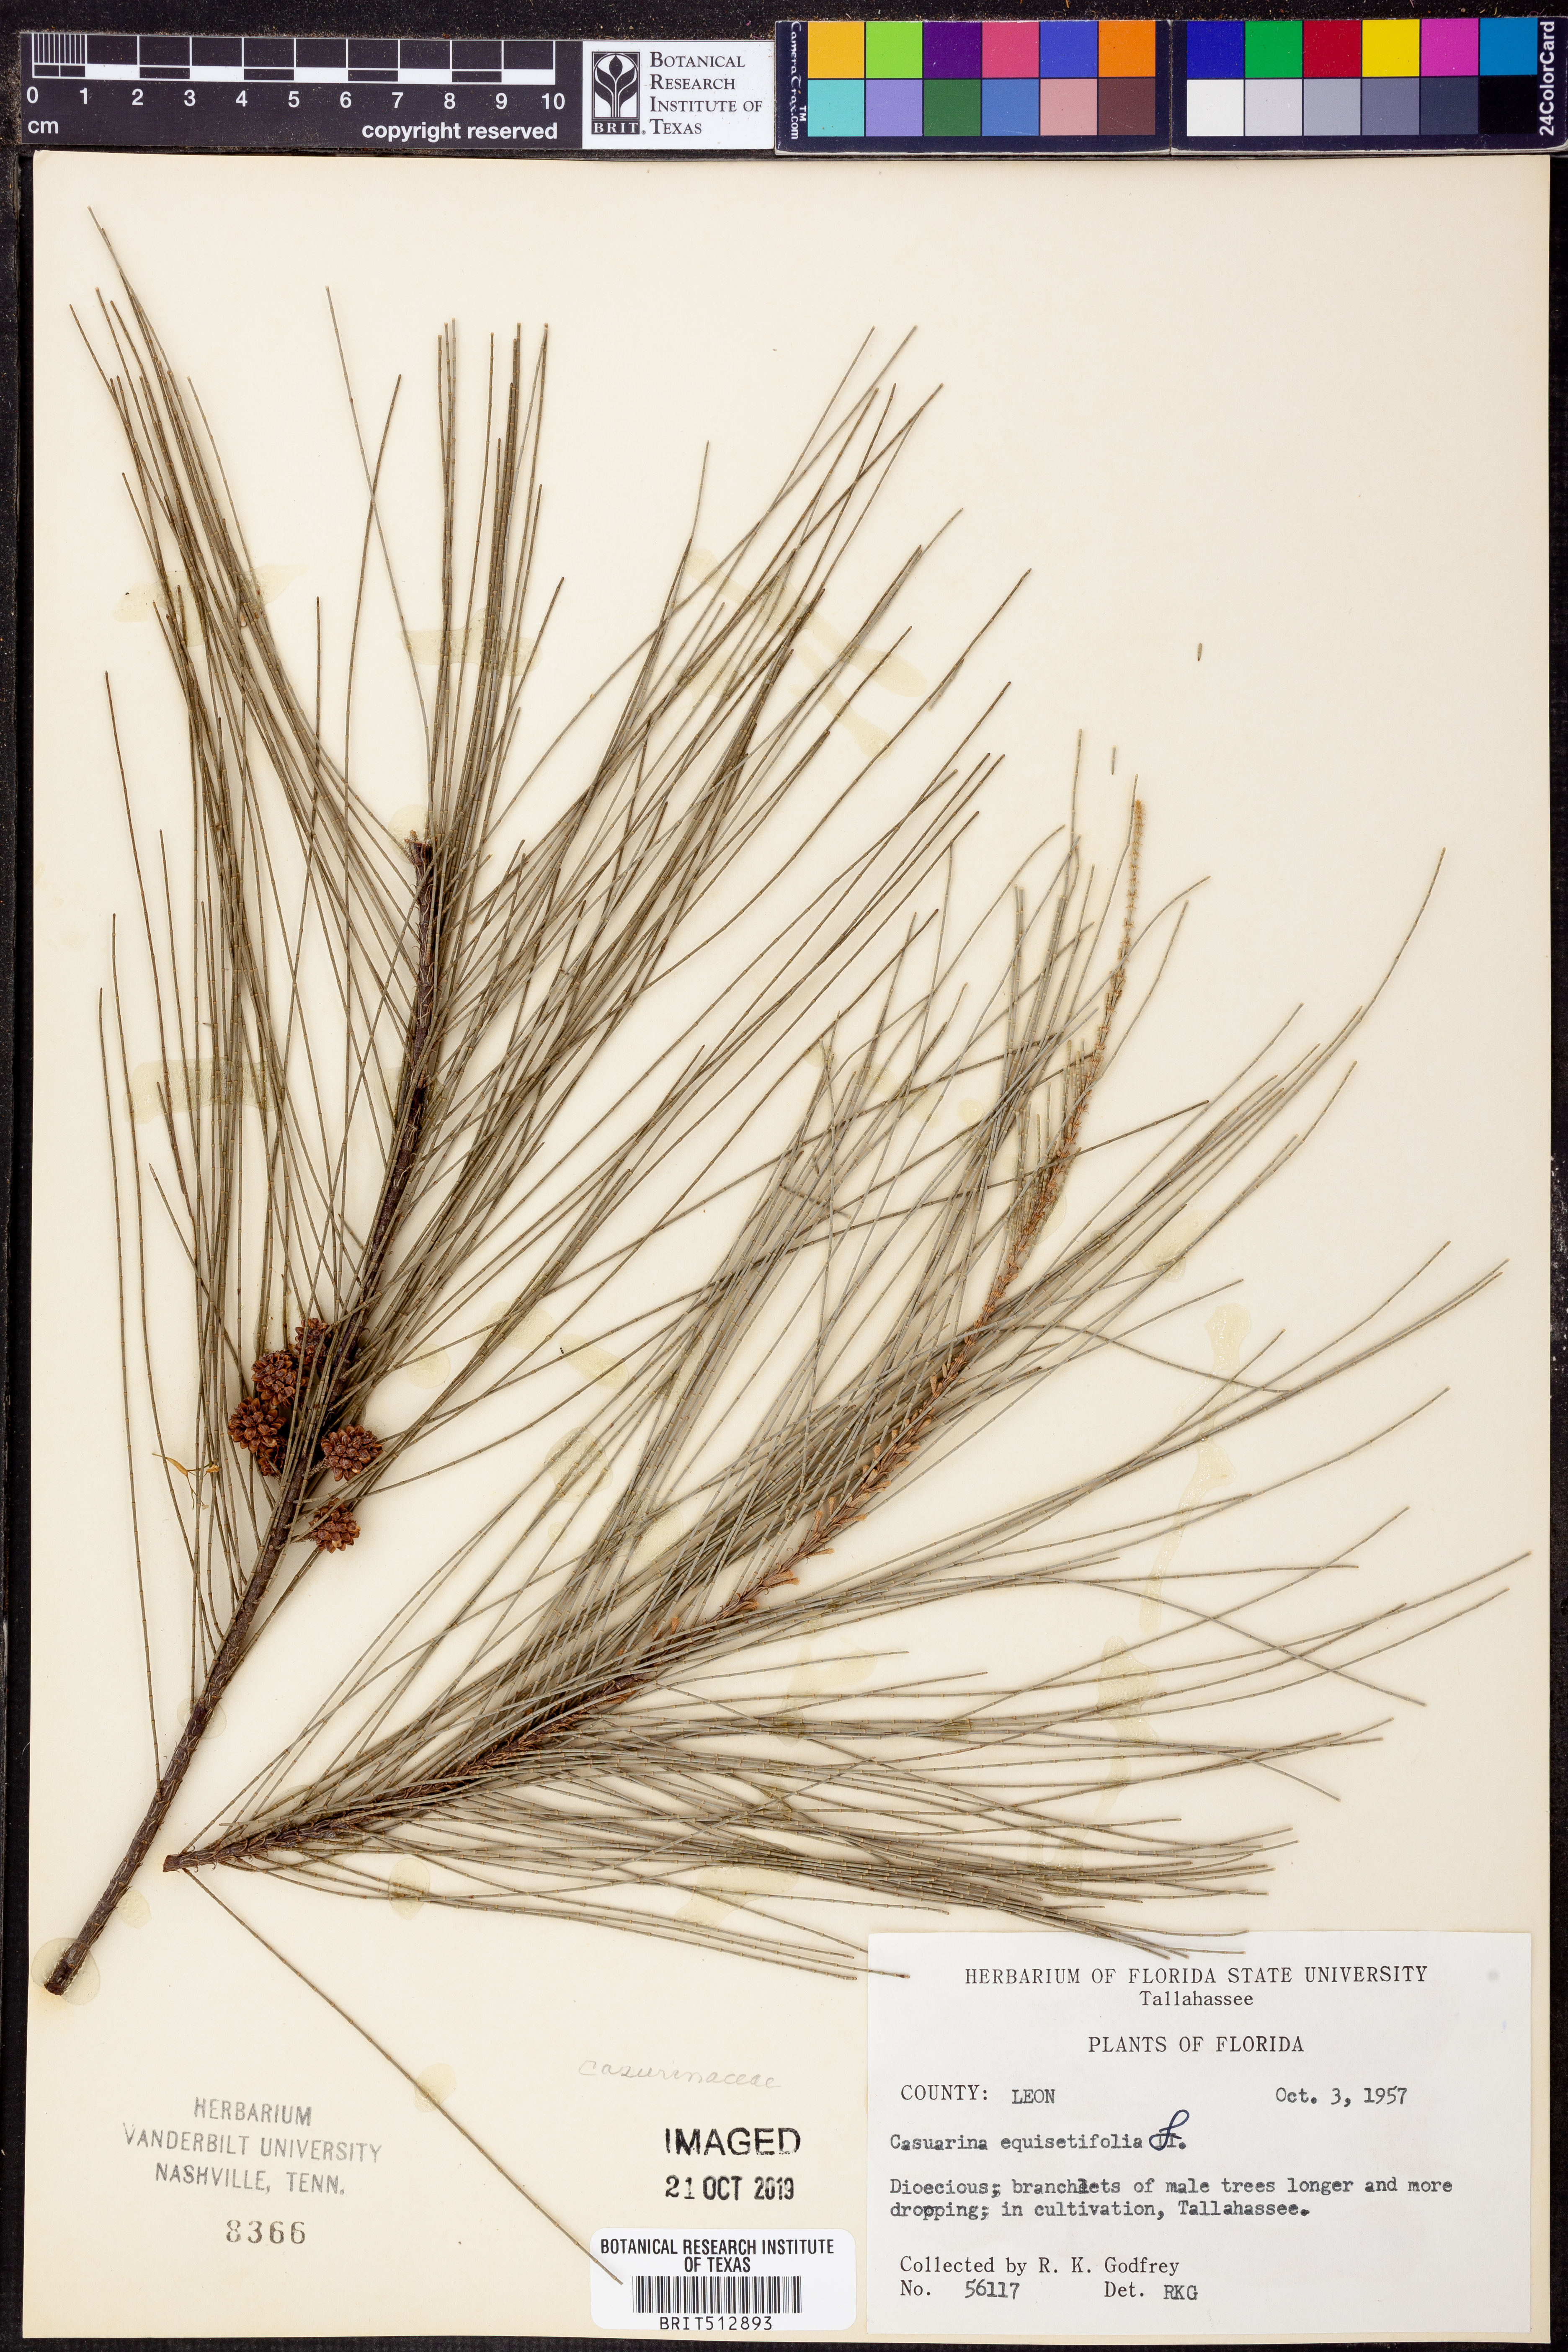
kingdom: Plantae
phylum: Tracheophyta
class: Magnoliopsida
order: Fagales
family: Casuarinaceae
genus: Casuarina
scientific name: Casuarina equisetifolia
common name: Beach sheoak
